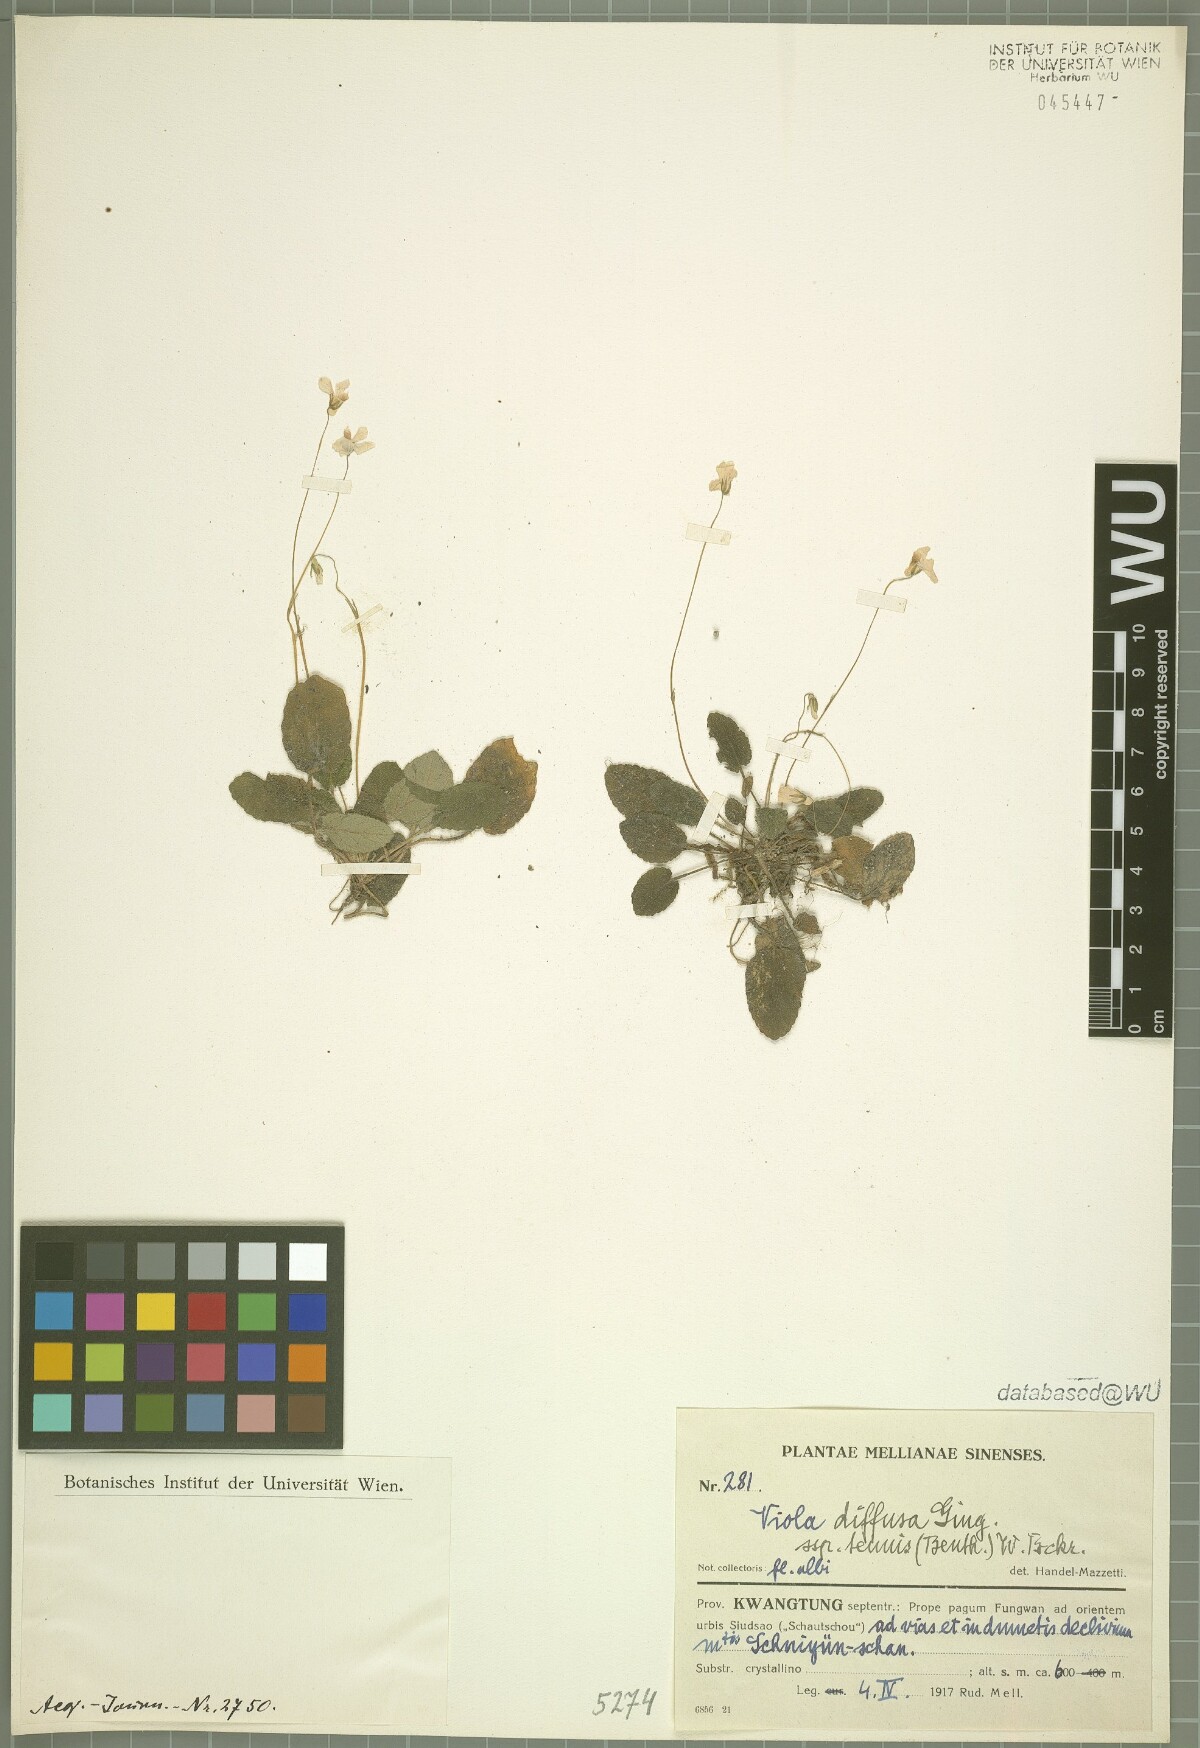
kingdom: Plantae
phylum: Tracheophyta
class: Magnoliopsida
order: Malpighiales
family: Violaceae
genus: Viola
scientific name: Viola diffusa
